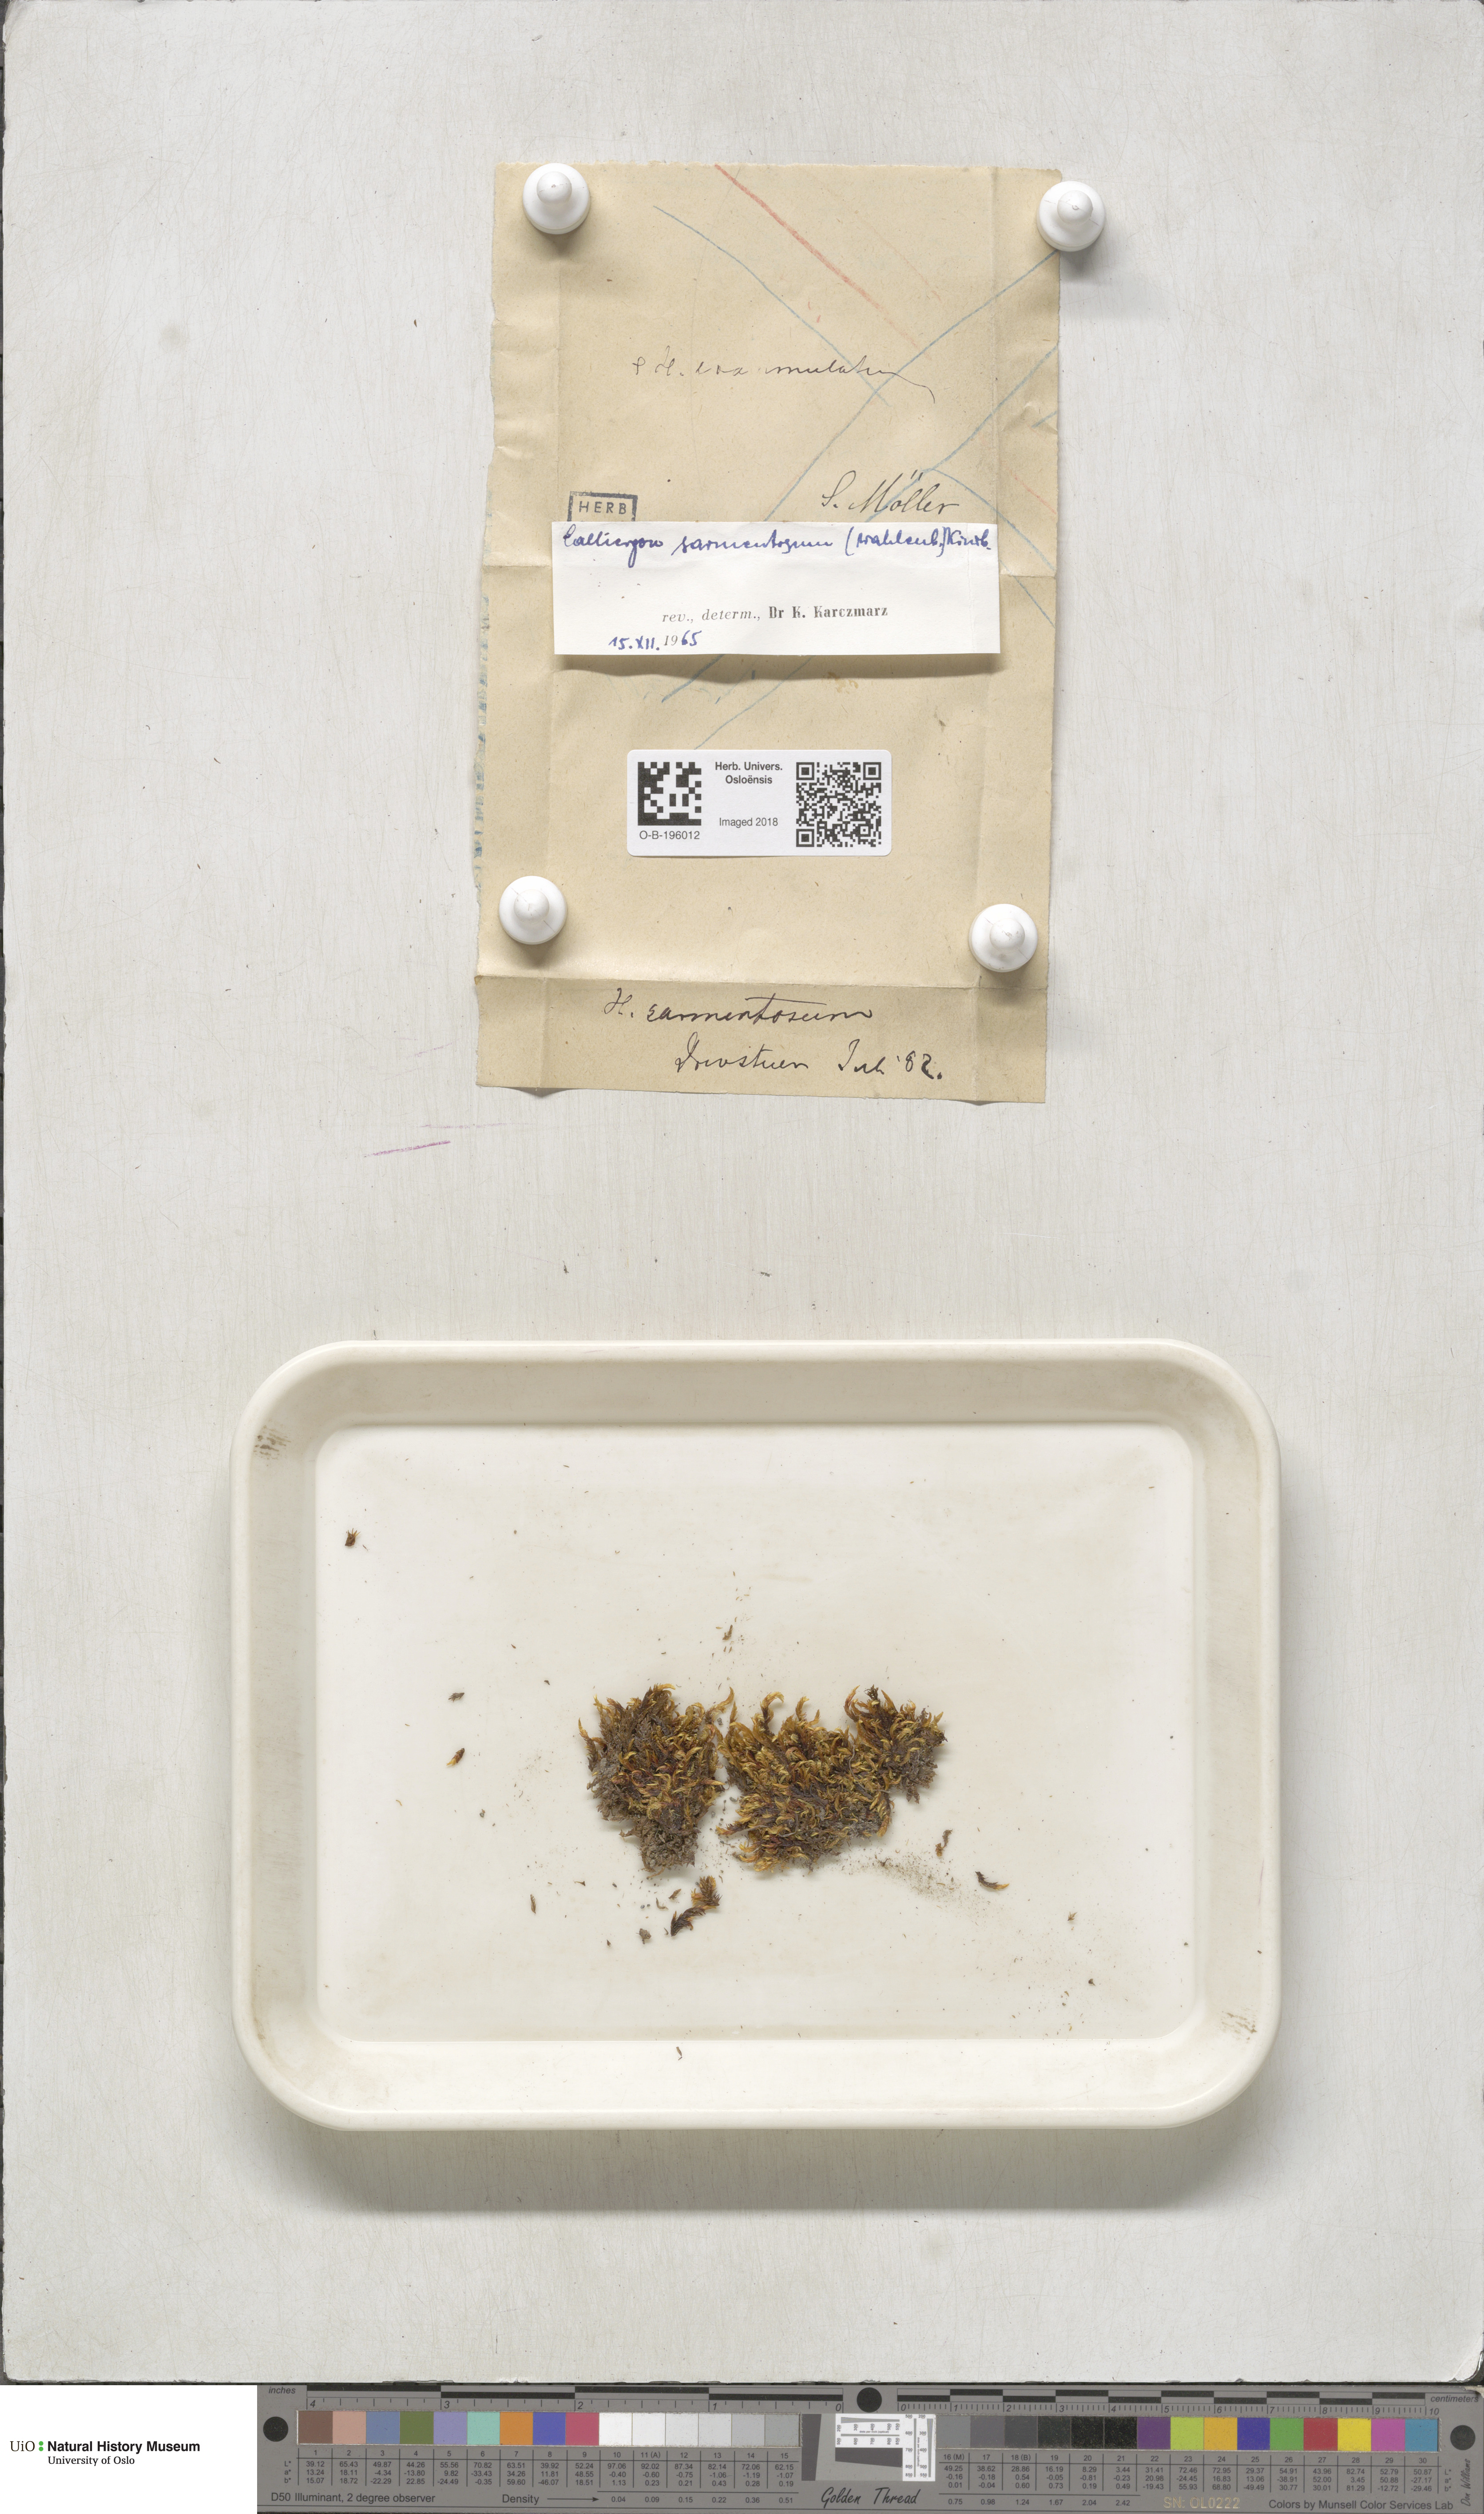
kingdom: Plantae
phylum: Bryophyta
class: Bryopsida
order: Hypnales
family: Calliergonaceae
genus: Sarmentypnum
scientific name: Sarmentypnum sarmentosum
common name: Twiggy spoon moss
